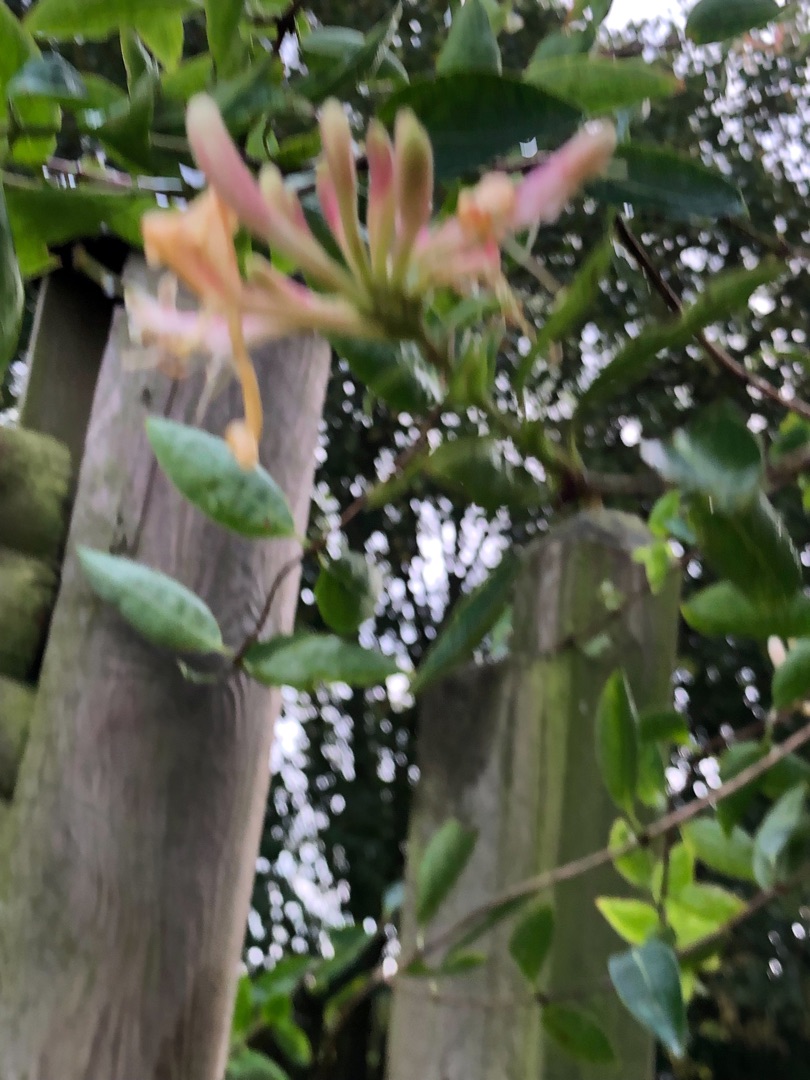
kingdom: Plantae
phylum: Tracheophyta
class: Magnoliopsida
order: Dipsacales
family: Caprifoliaceae
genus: Lonicera
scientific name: Lonicera periclymenum
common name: Almindelig gedeblad
